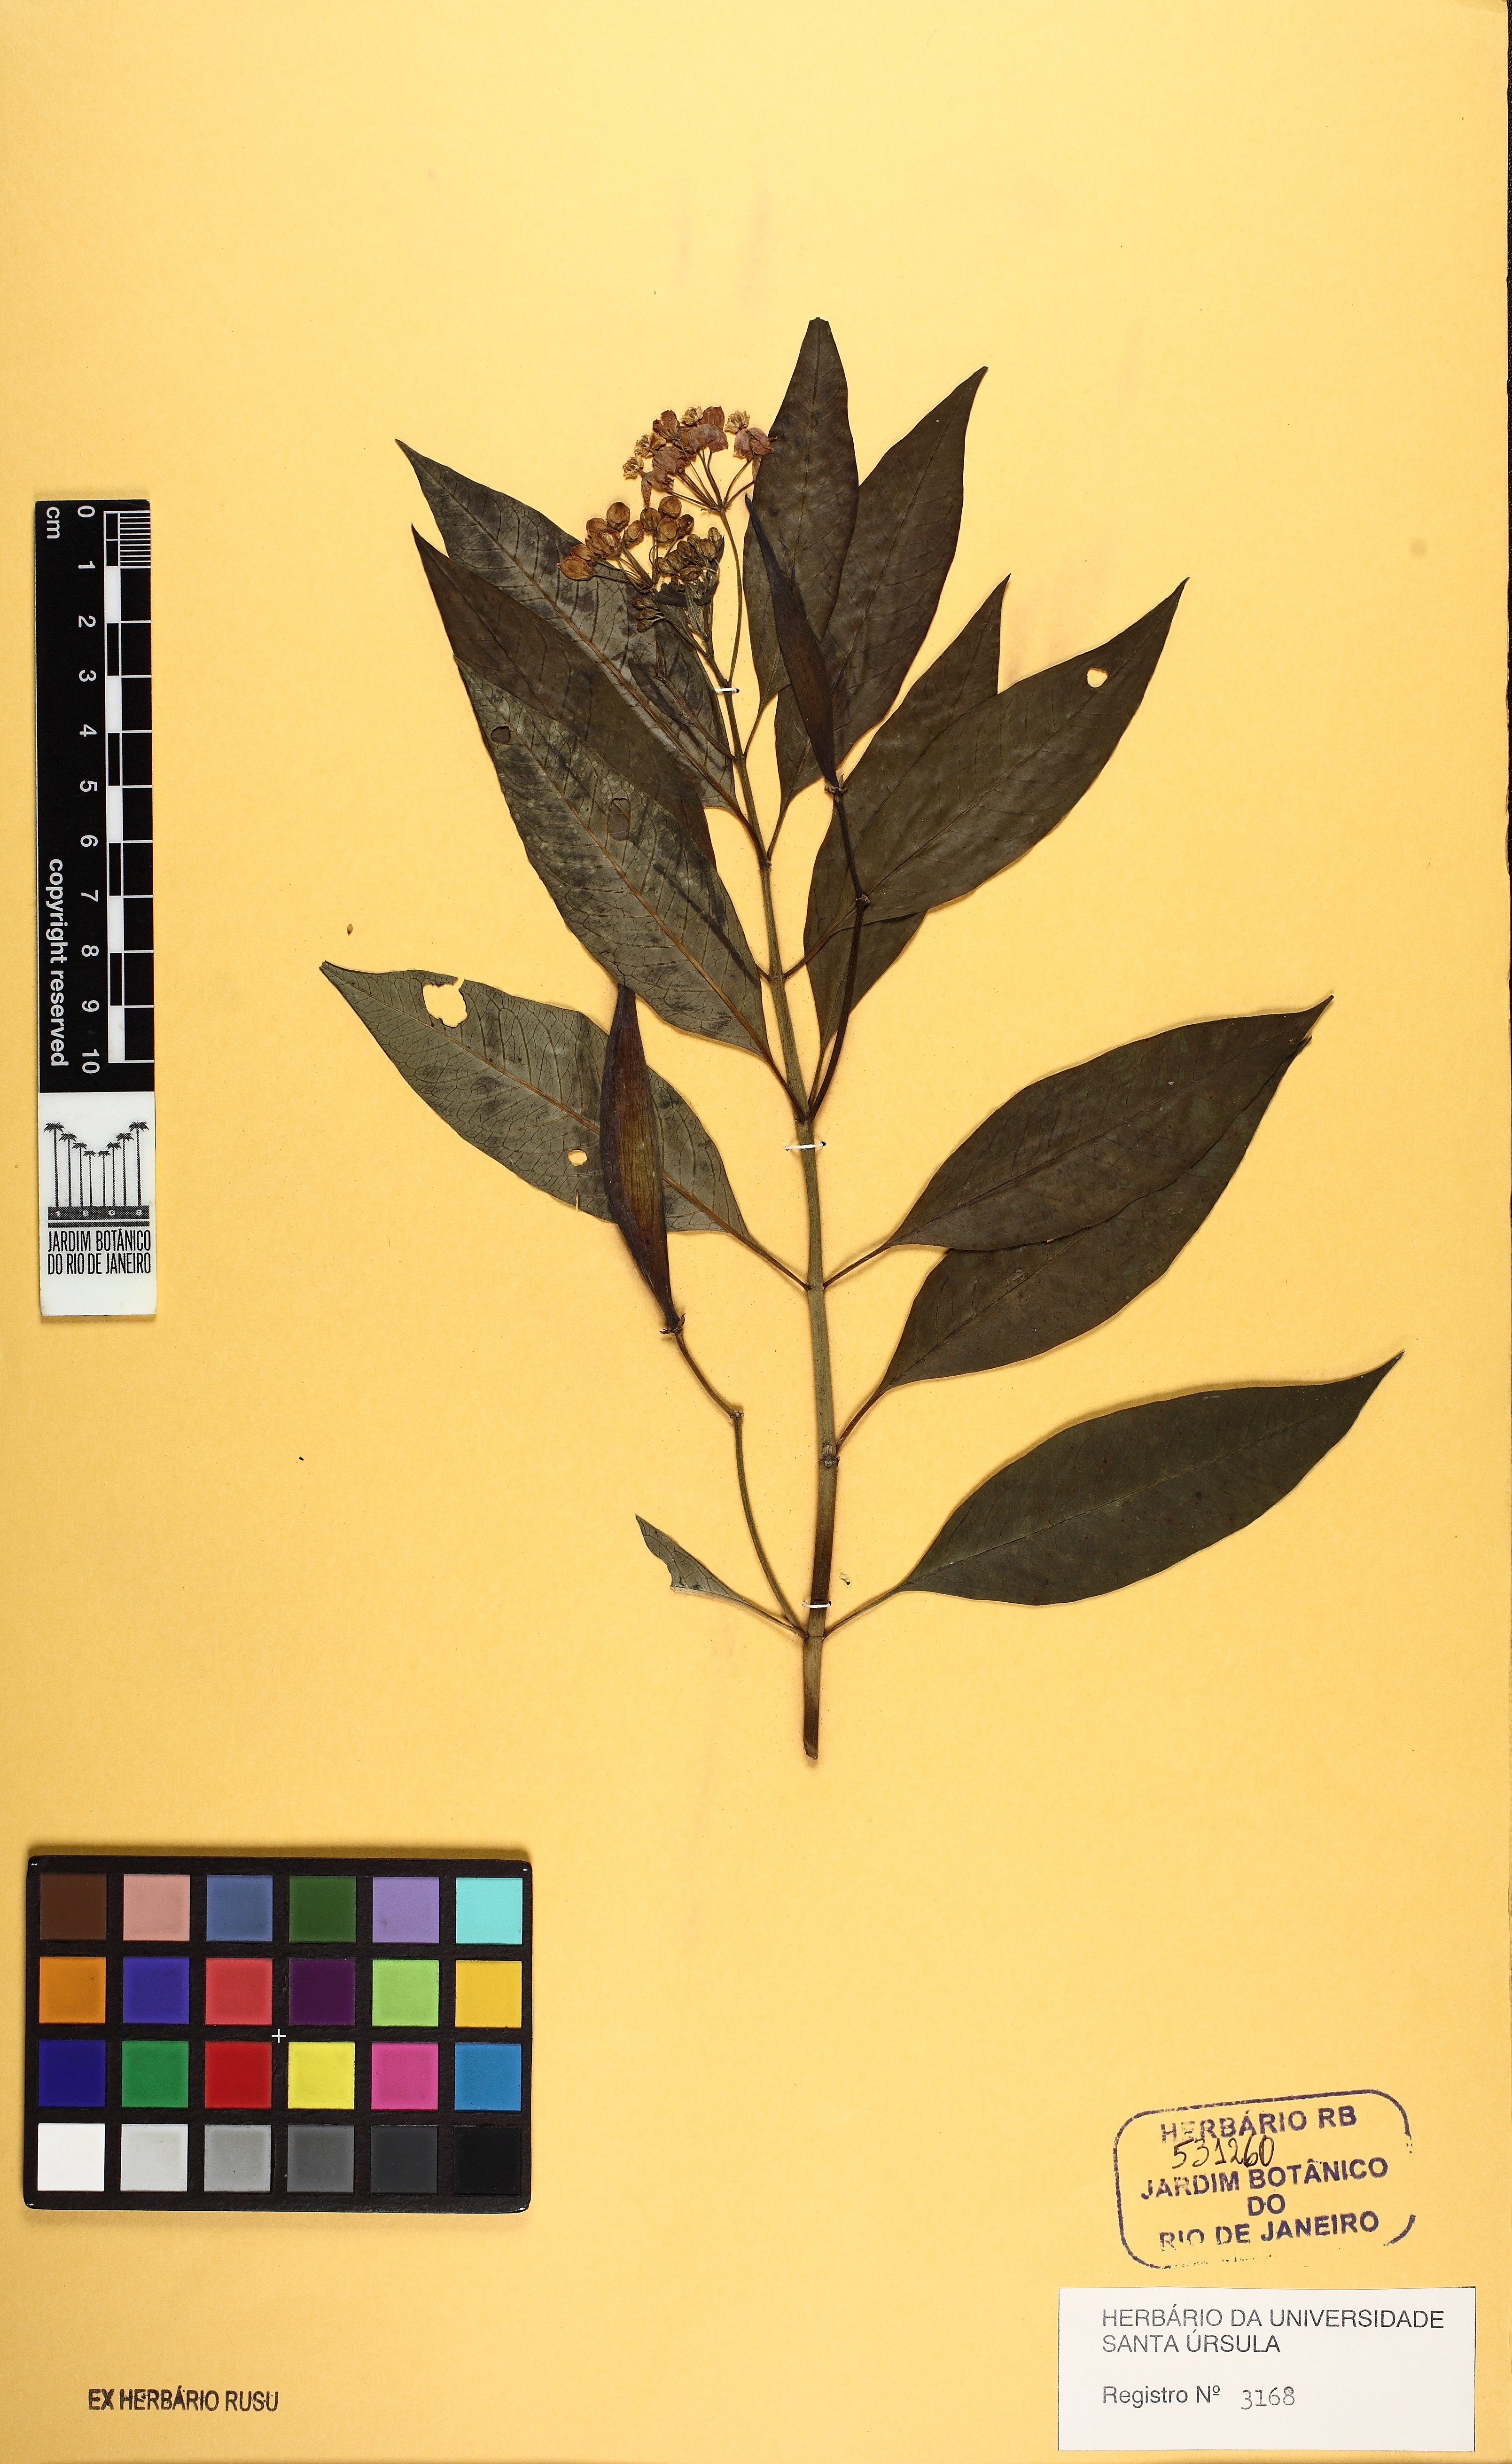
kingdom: Plantae
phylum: Tracheophyta
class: Magnoliopsida
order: Gentianales
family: Apocynaceae
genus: Asclepias
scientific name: Asclepias curassavica
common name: Bloodflower
